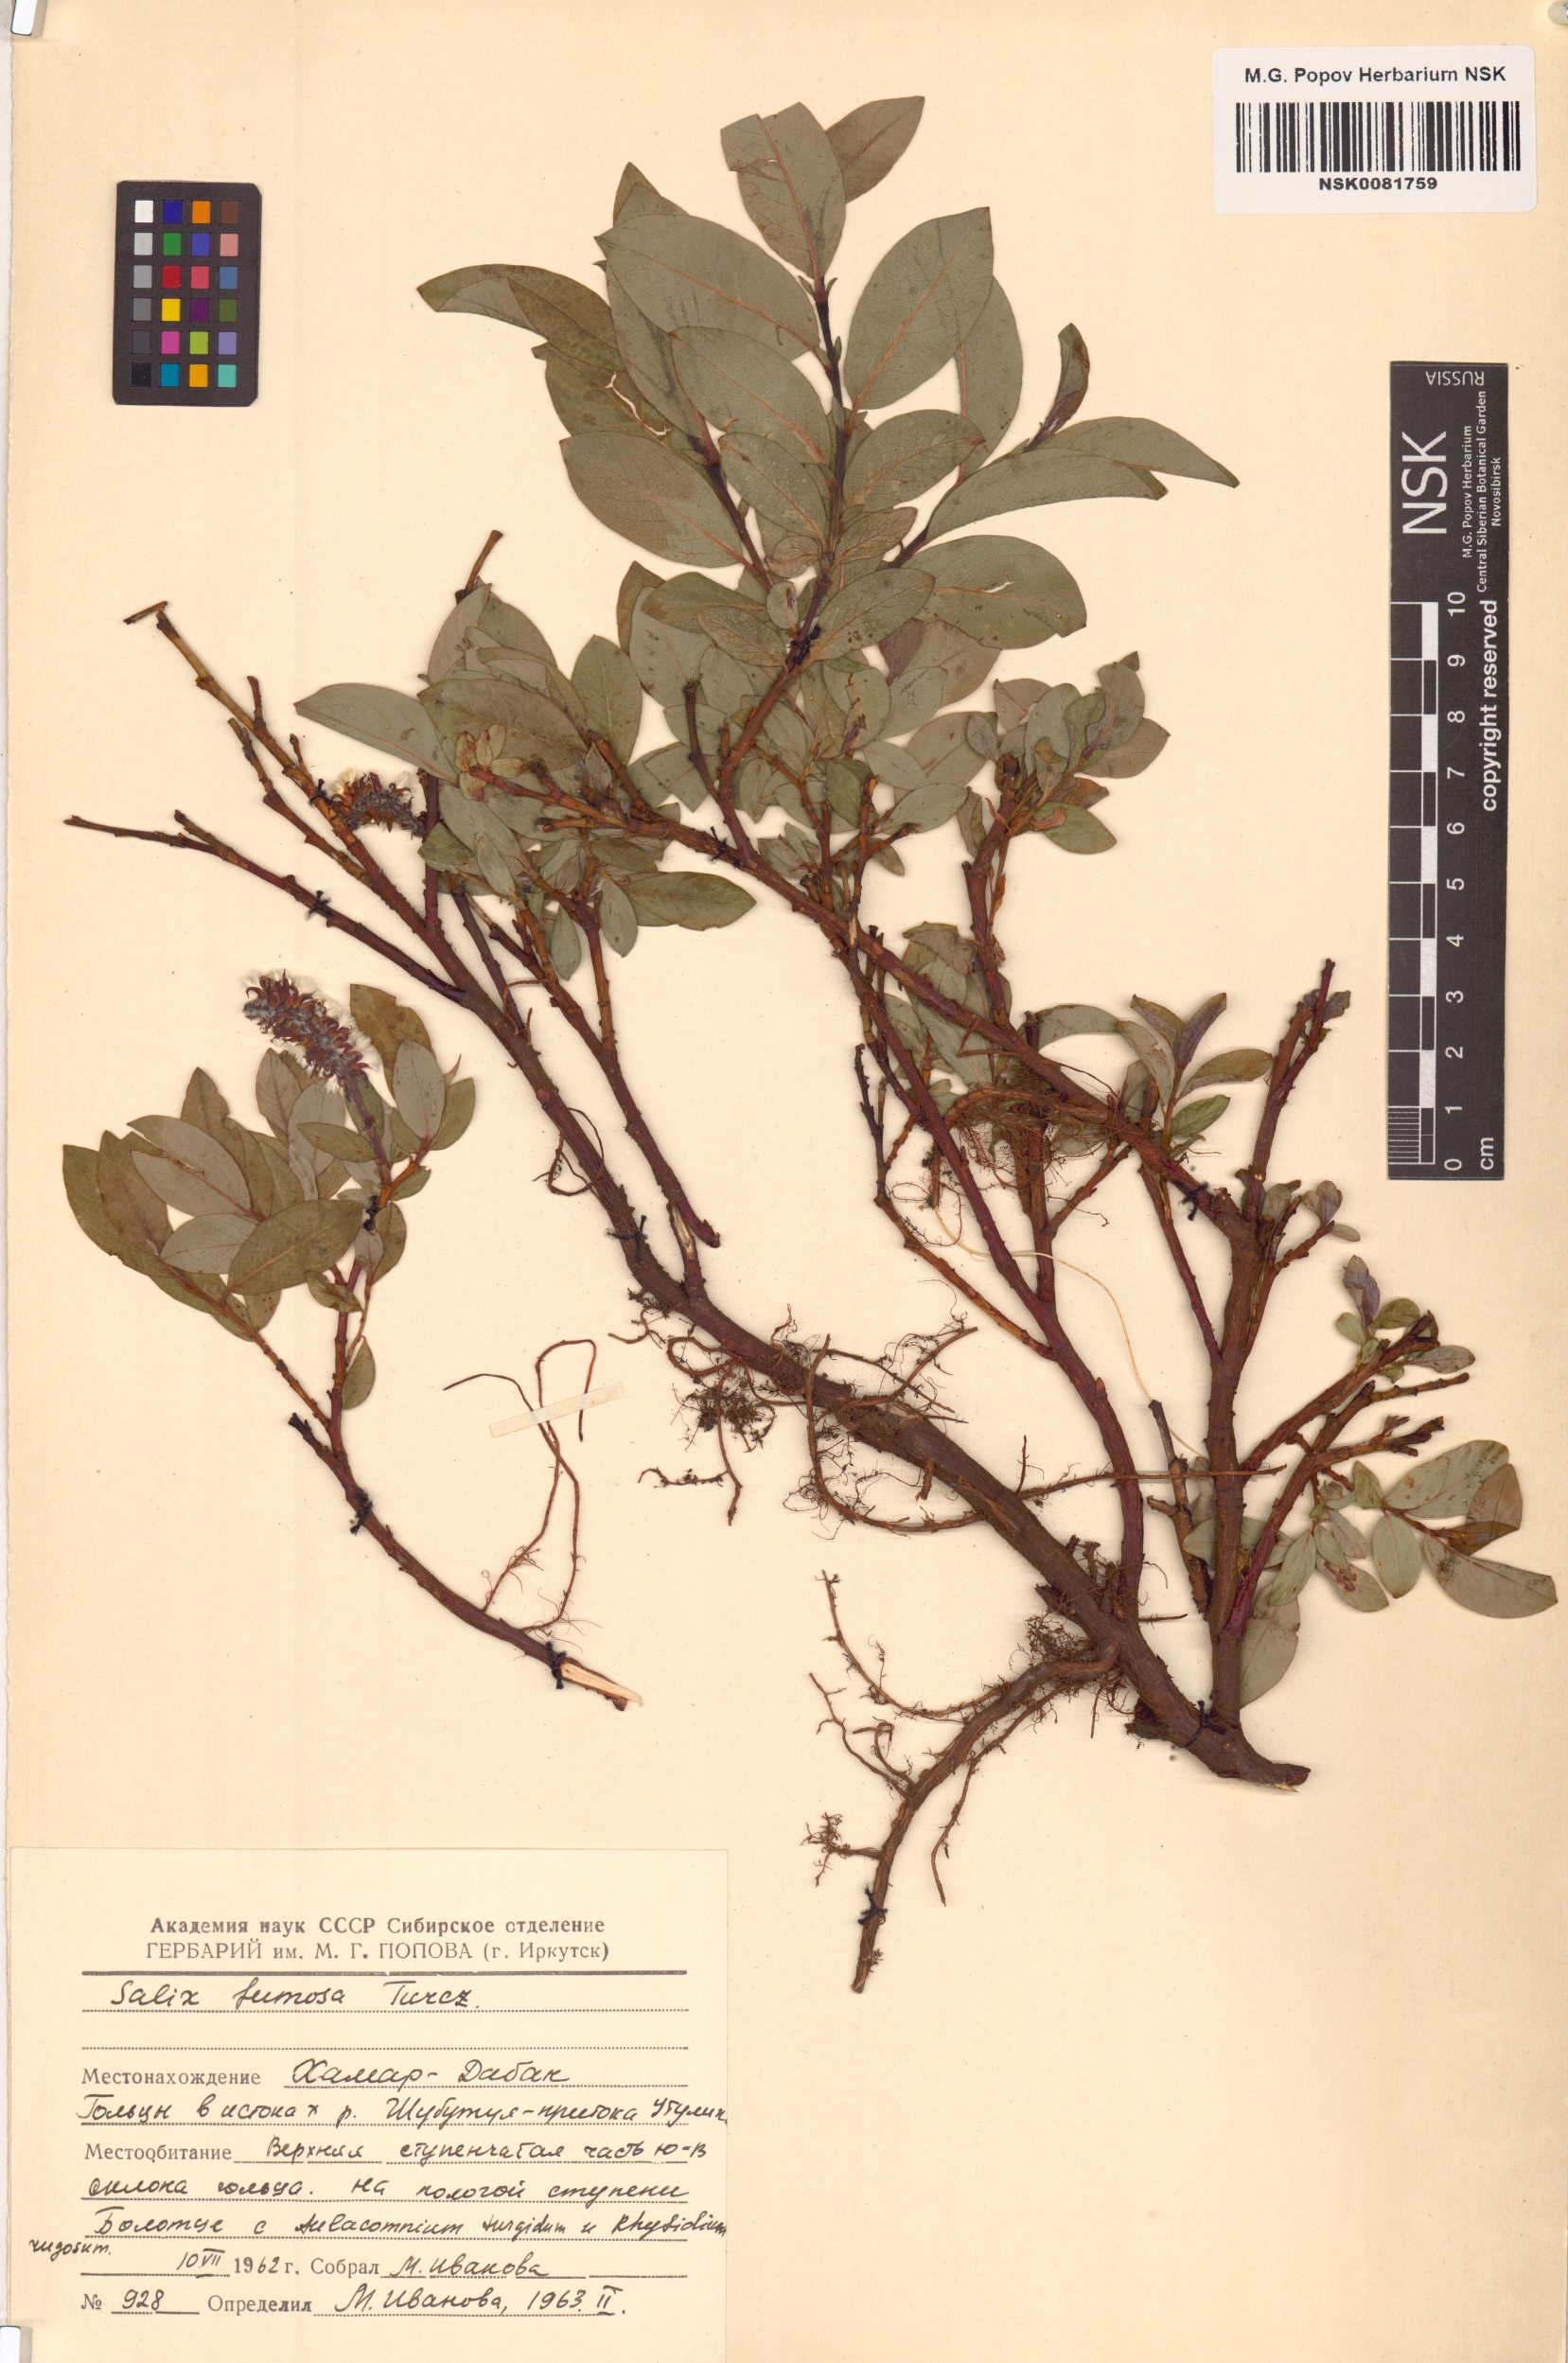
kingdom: Plantae
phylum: Tracheophyta
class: Magnoliopsida
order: Malpighiales
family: Salicaceae
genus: Salix
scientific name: Salix saxatilis
